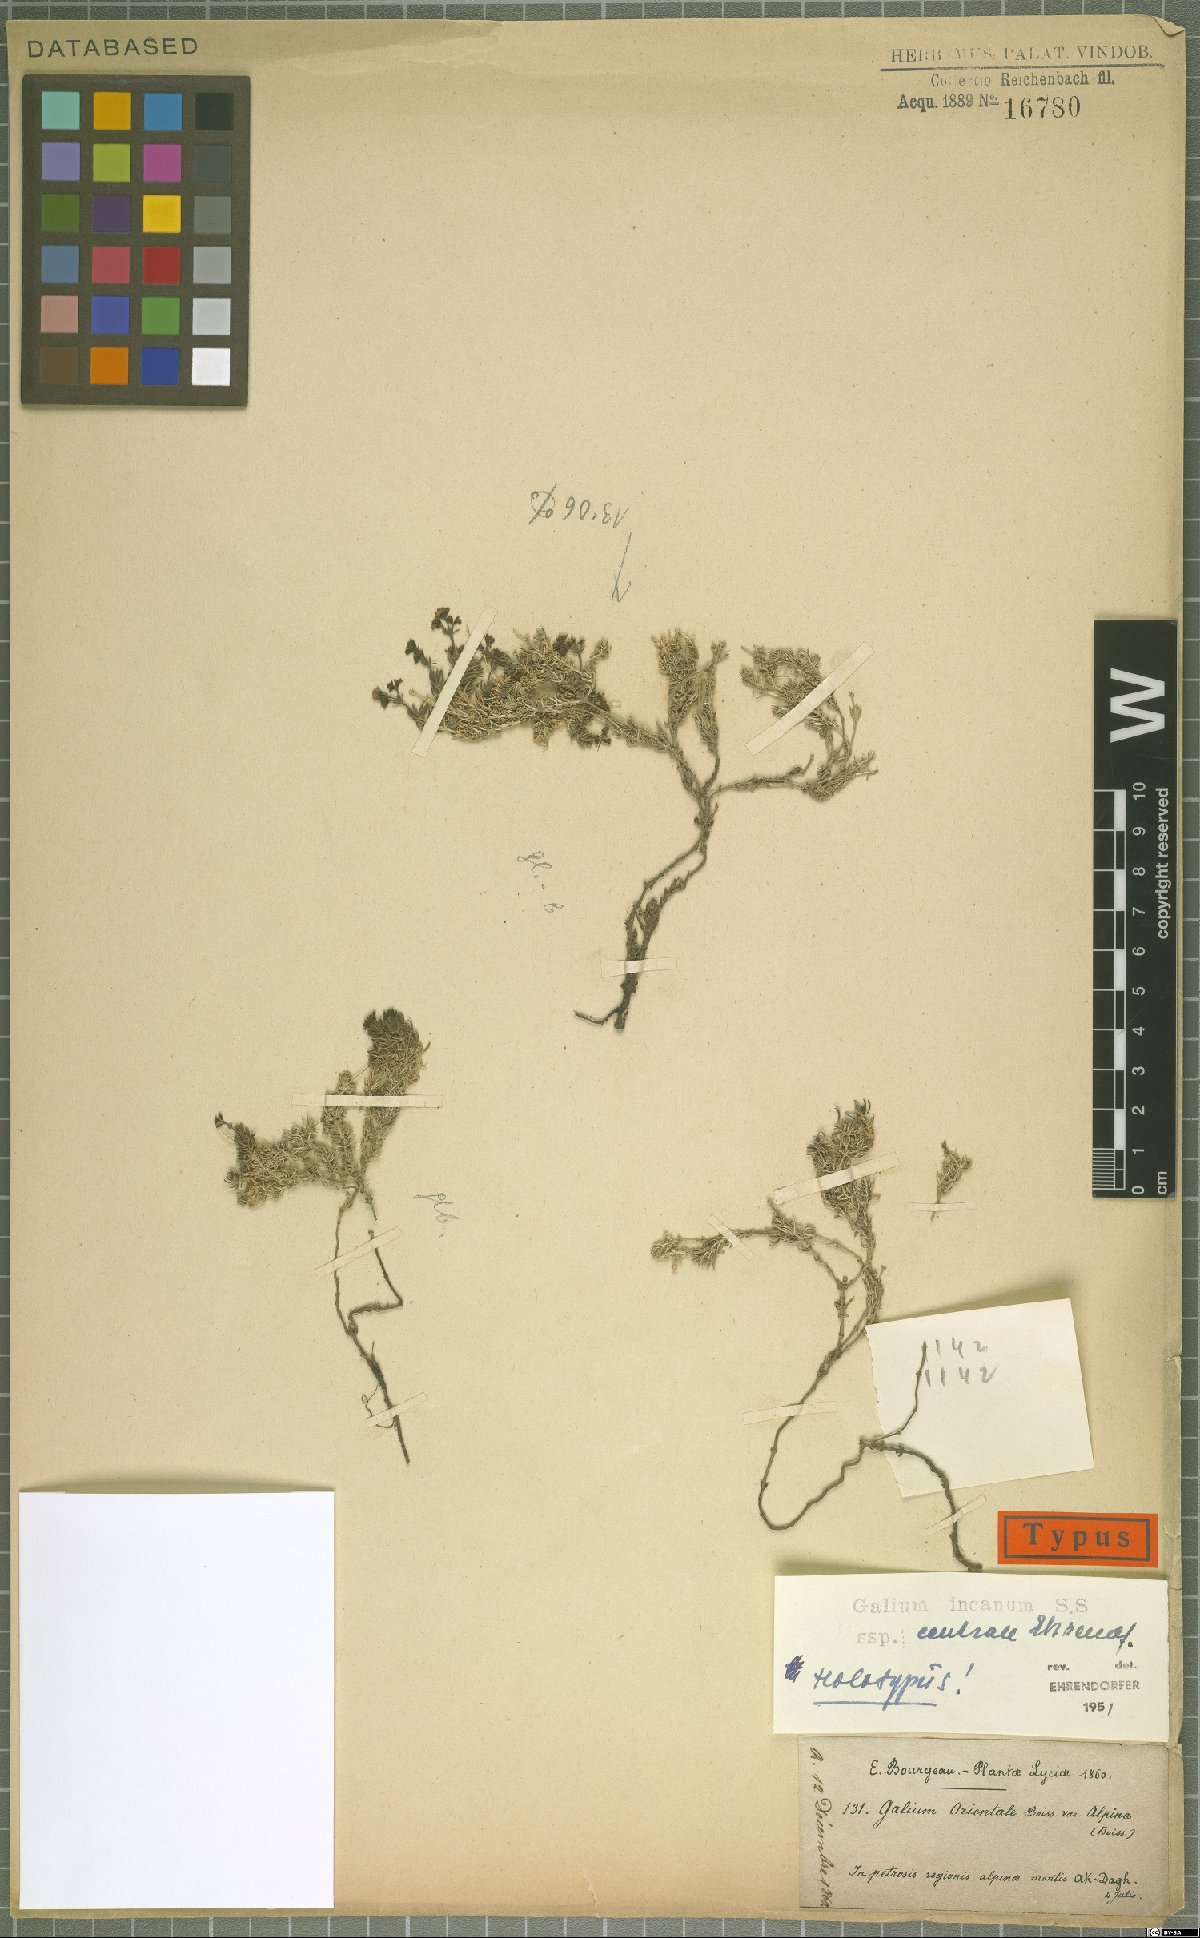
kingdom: Plantae
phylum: Tracheophyta
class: Magnoliopsida
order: Gentianales
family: Rubiaceae
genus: Galium
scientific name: Galium incanum
